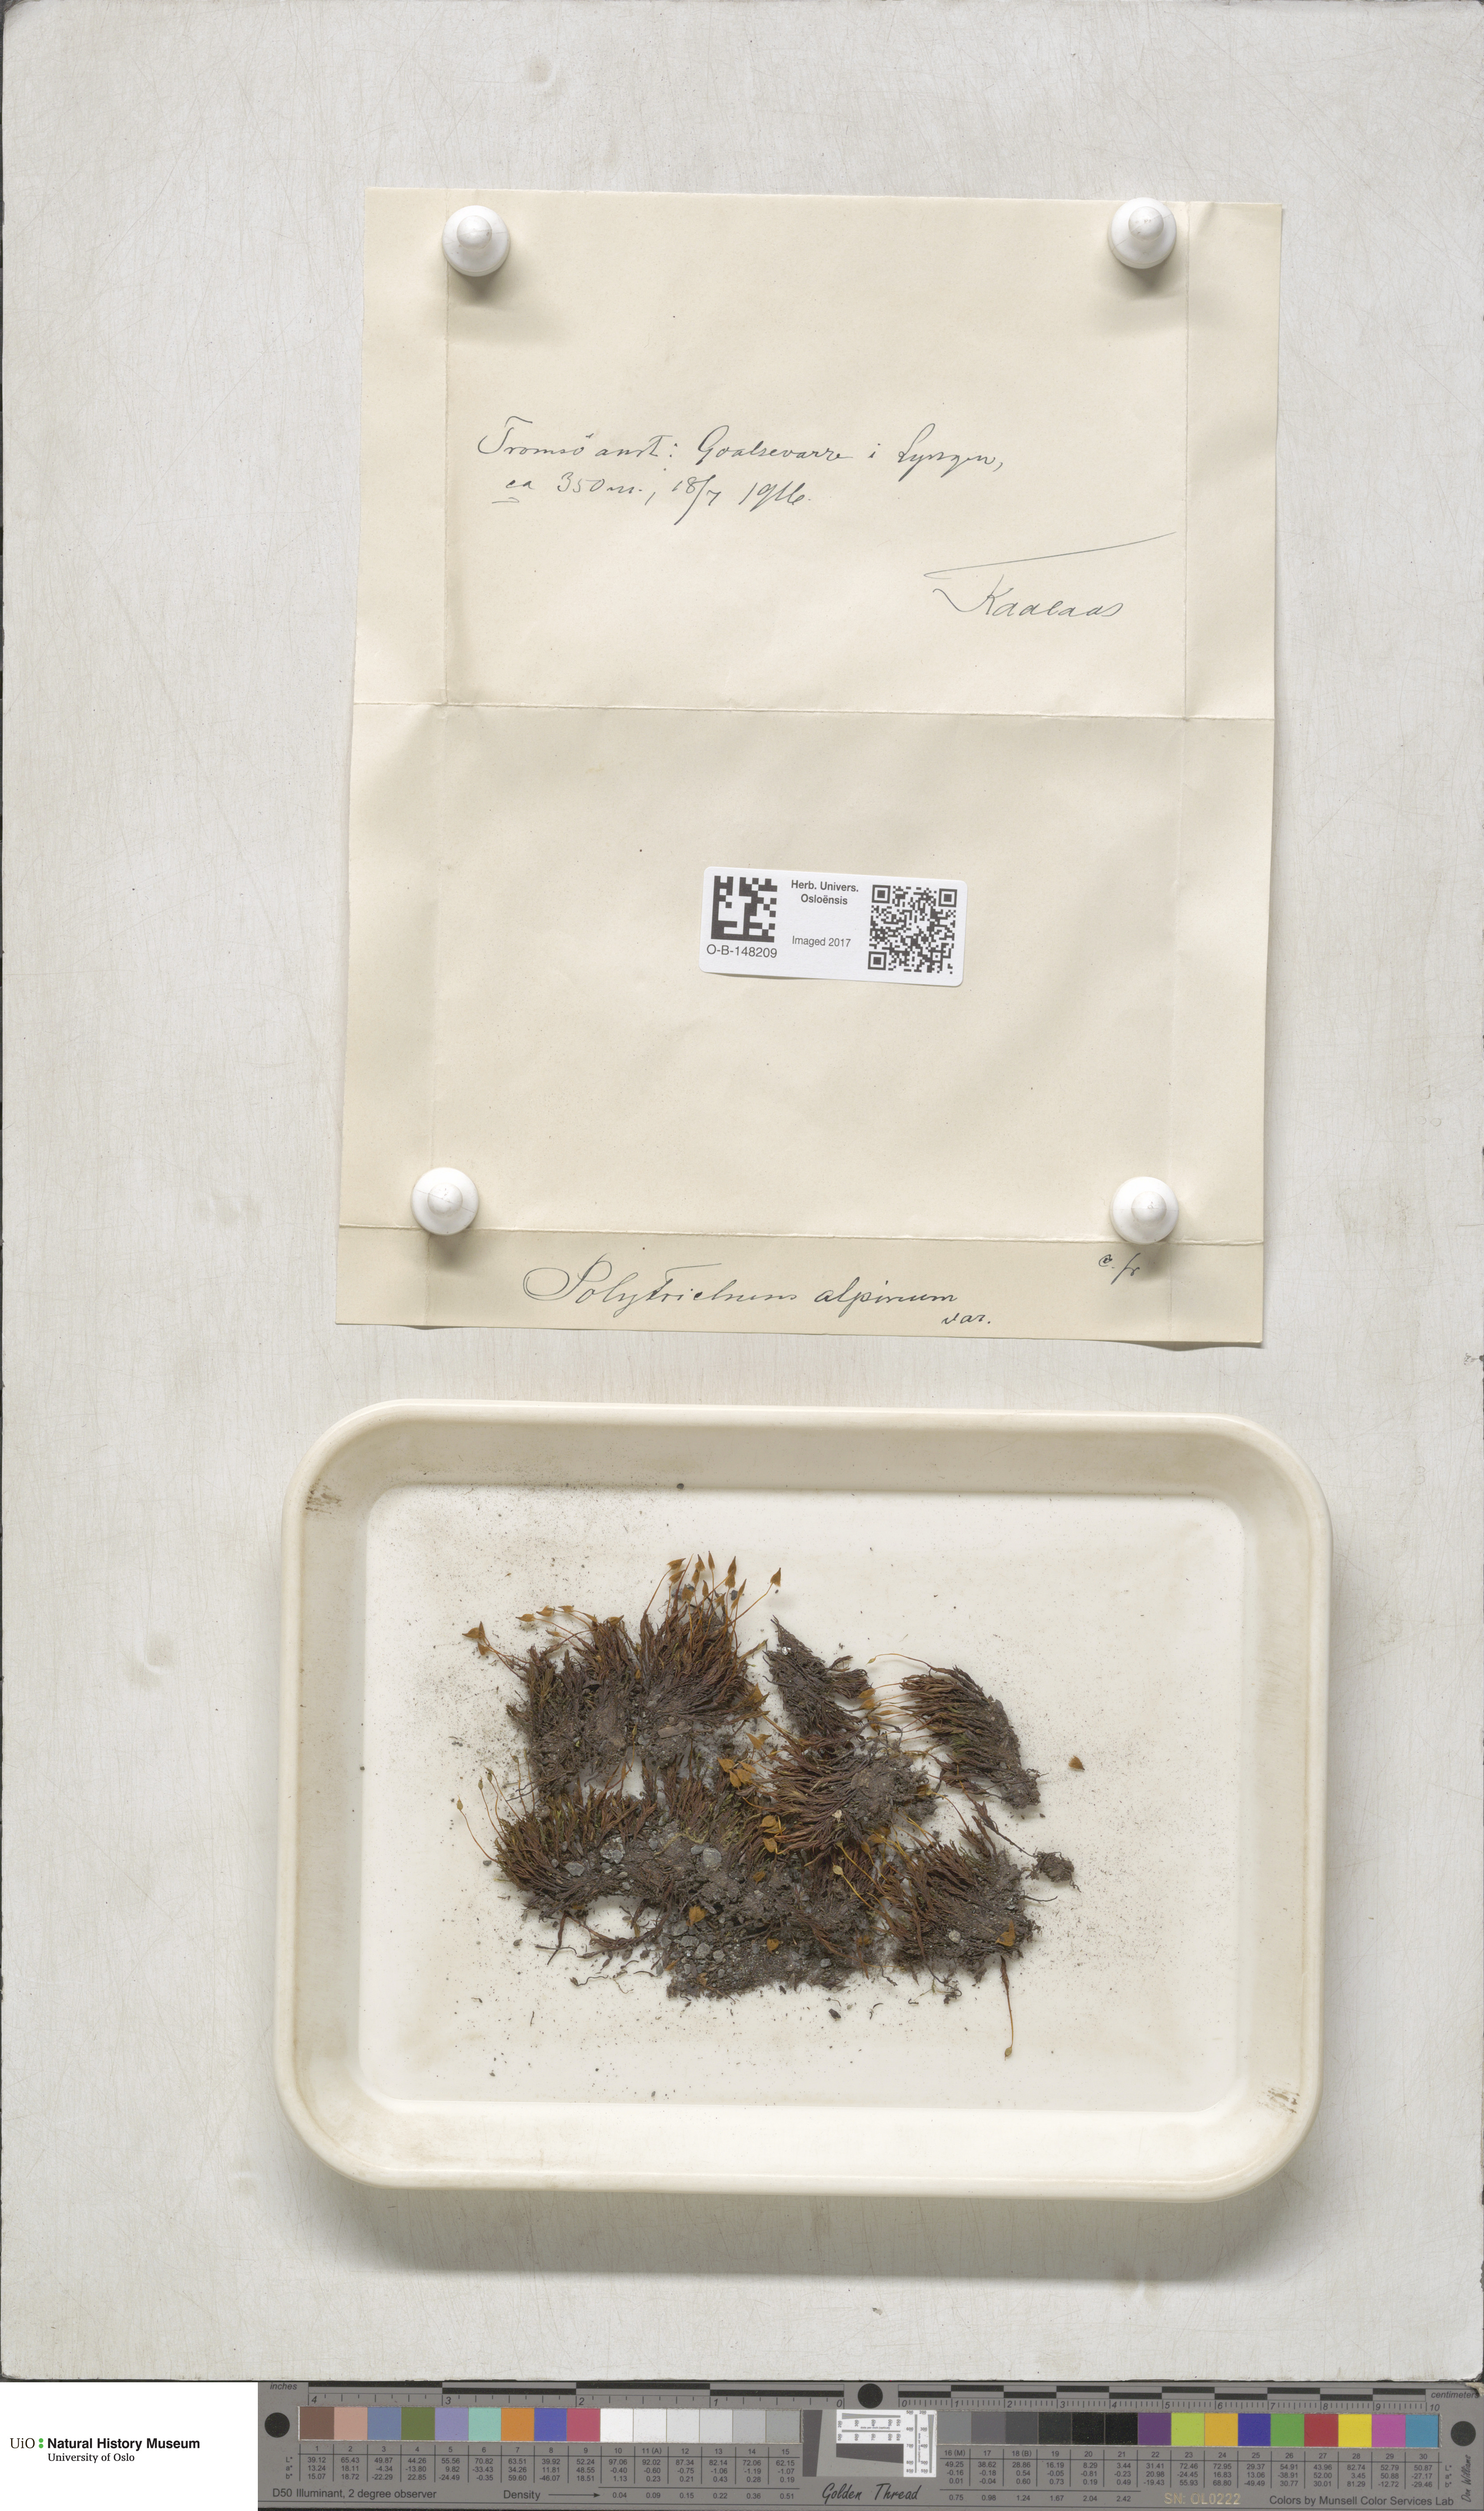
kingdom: Plantae
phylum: Bryophyta
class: Polytrichopsida
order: Polytrichales
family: Polytrichaceae
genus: Polytrichastrum
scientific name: Polytrichastrum alpinum
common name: Alpine haircap
